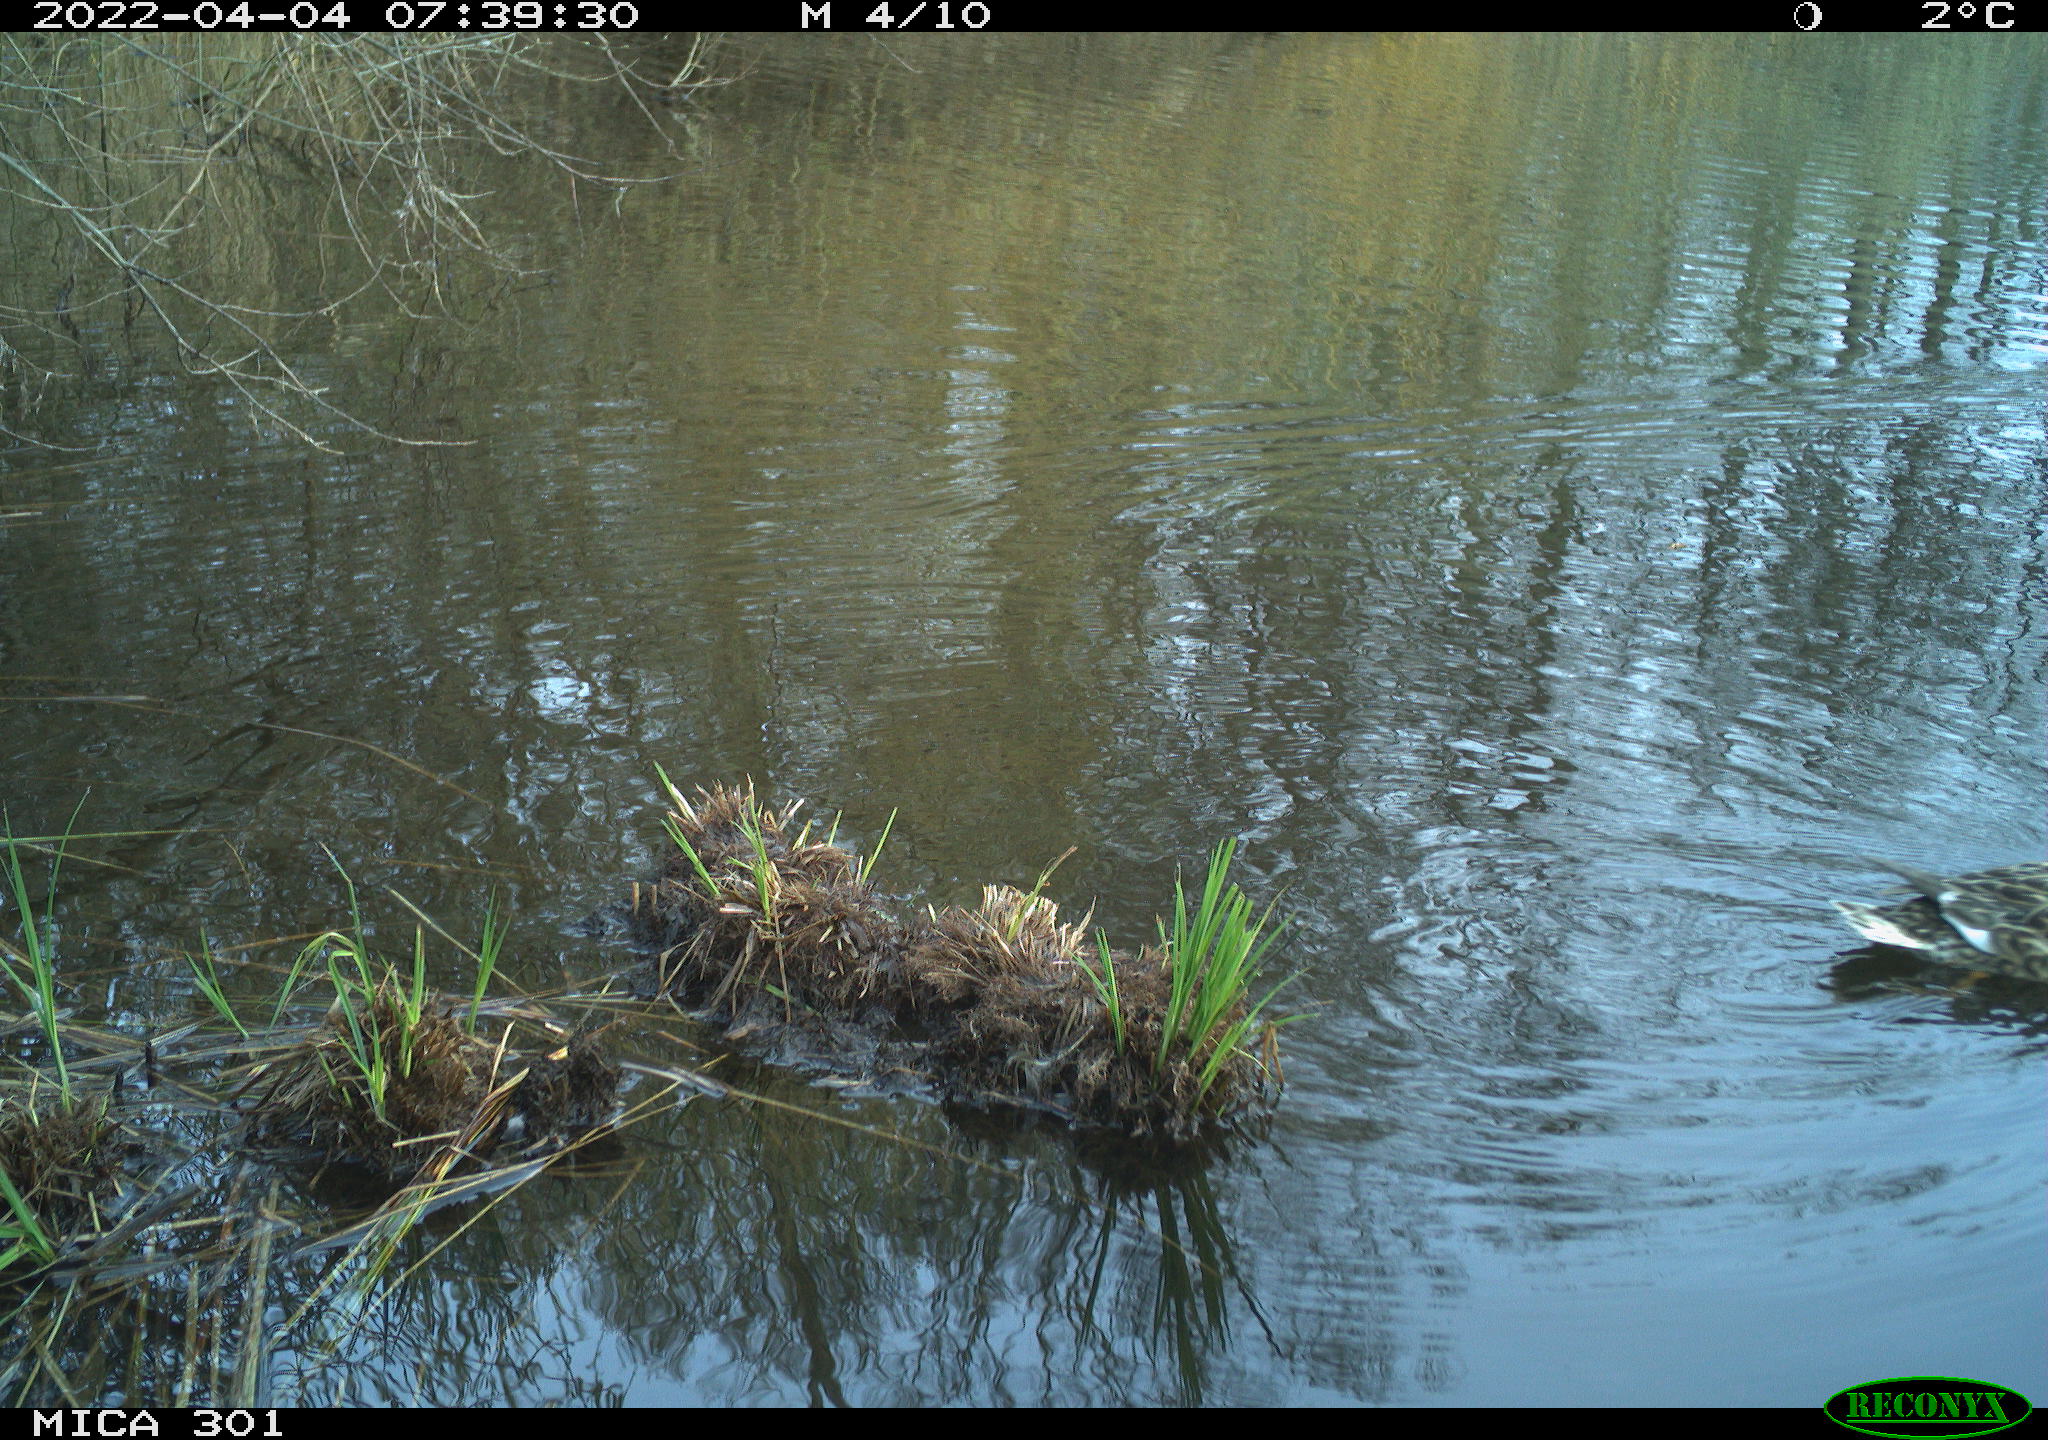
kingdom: Animalia
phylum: Chordata
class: Aves
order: Anseriformes
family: Anatidae
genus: Mareca
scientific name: Mareca strepera
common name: Gadwall
